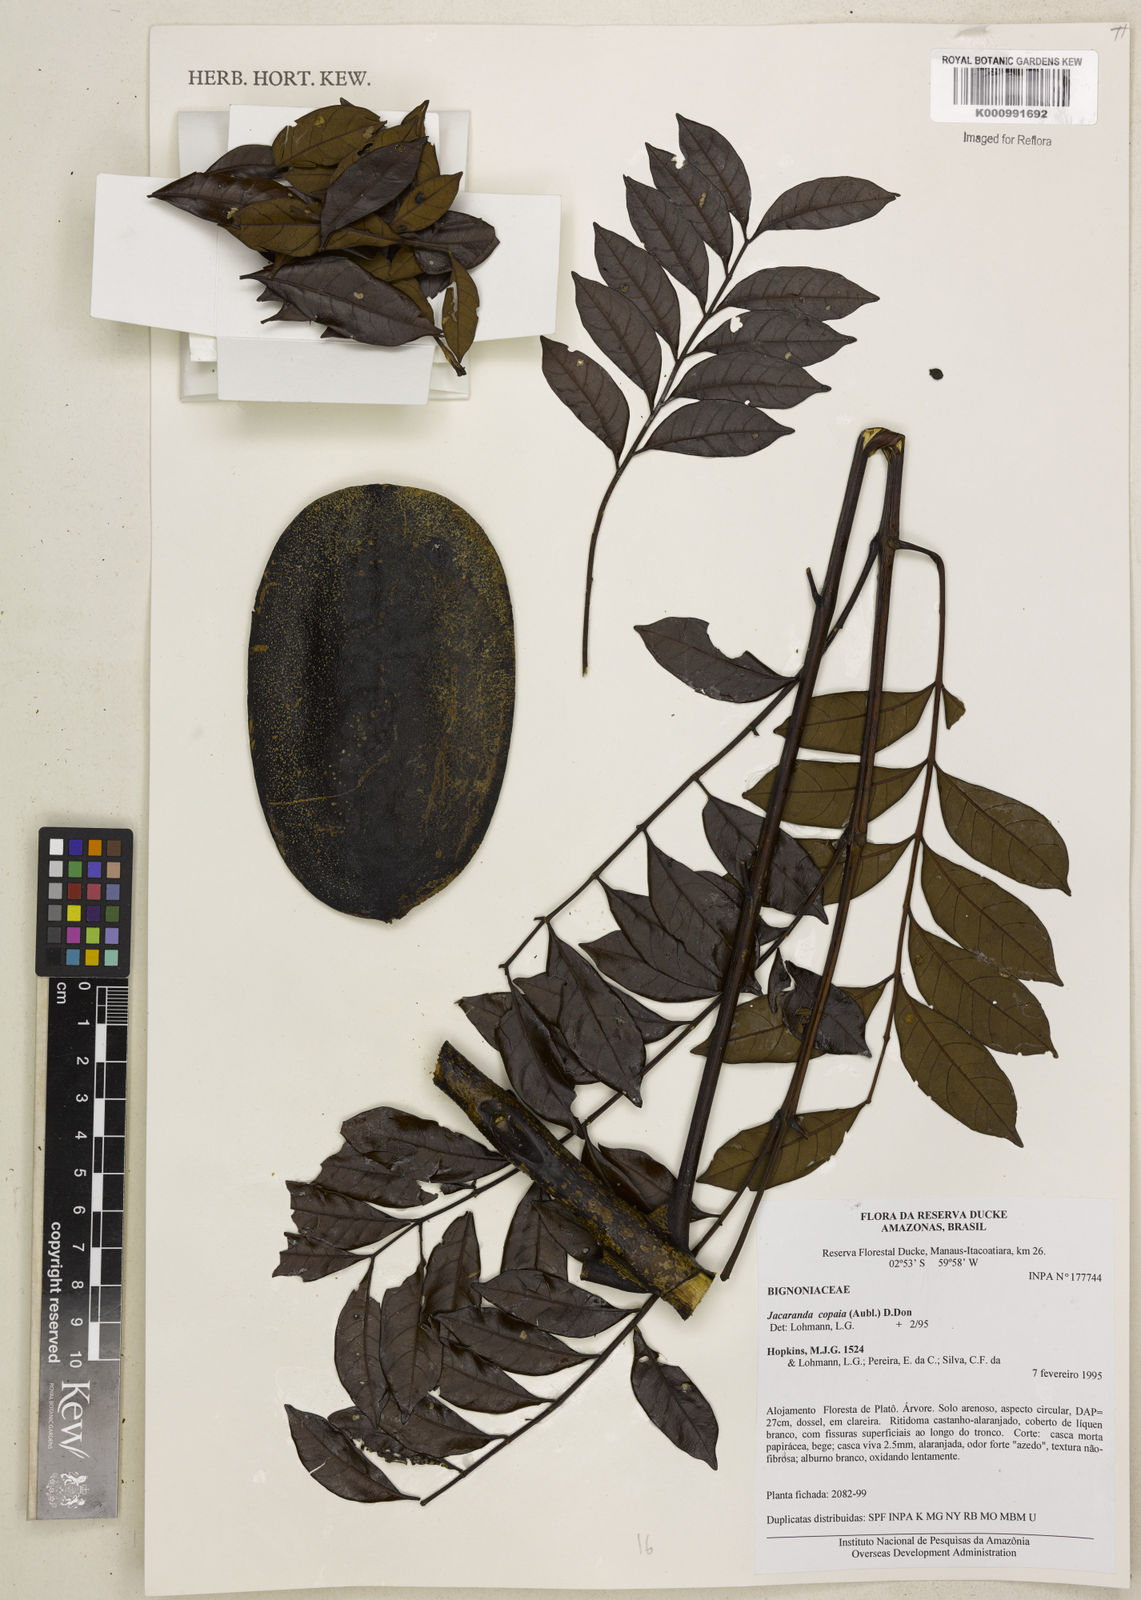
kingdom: Plantae
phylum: Tracheophyta
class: Magnoliopsida
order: Lamiales
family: Bignoniaceae
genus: Jacaranda
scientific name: Jacaranda
